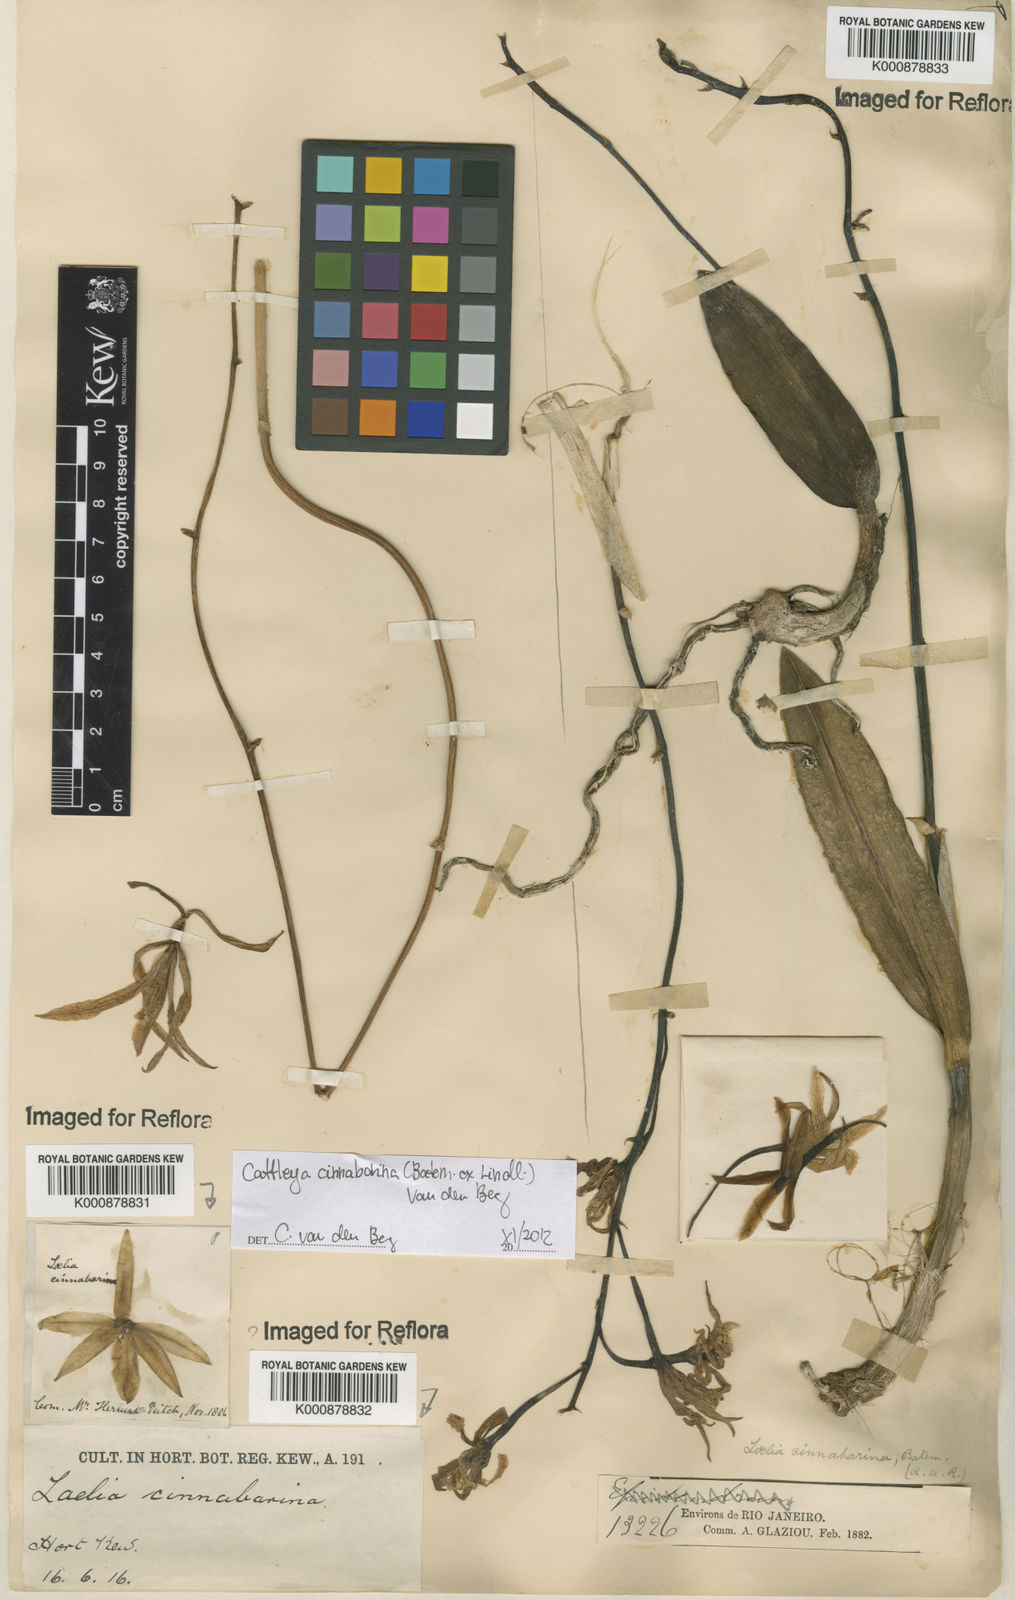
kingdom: Plantae
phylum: Tracheophyta
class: Liliopsida
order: Asparagales
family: Orchidaceae
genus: Cattleya
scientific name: Cattleya cinnabarina
